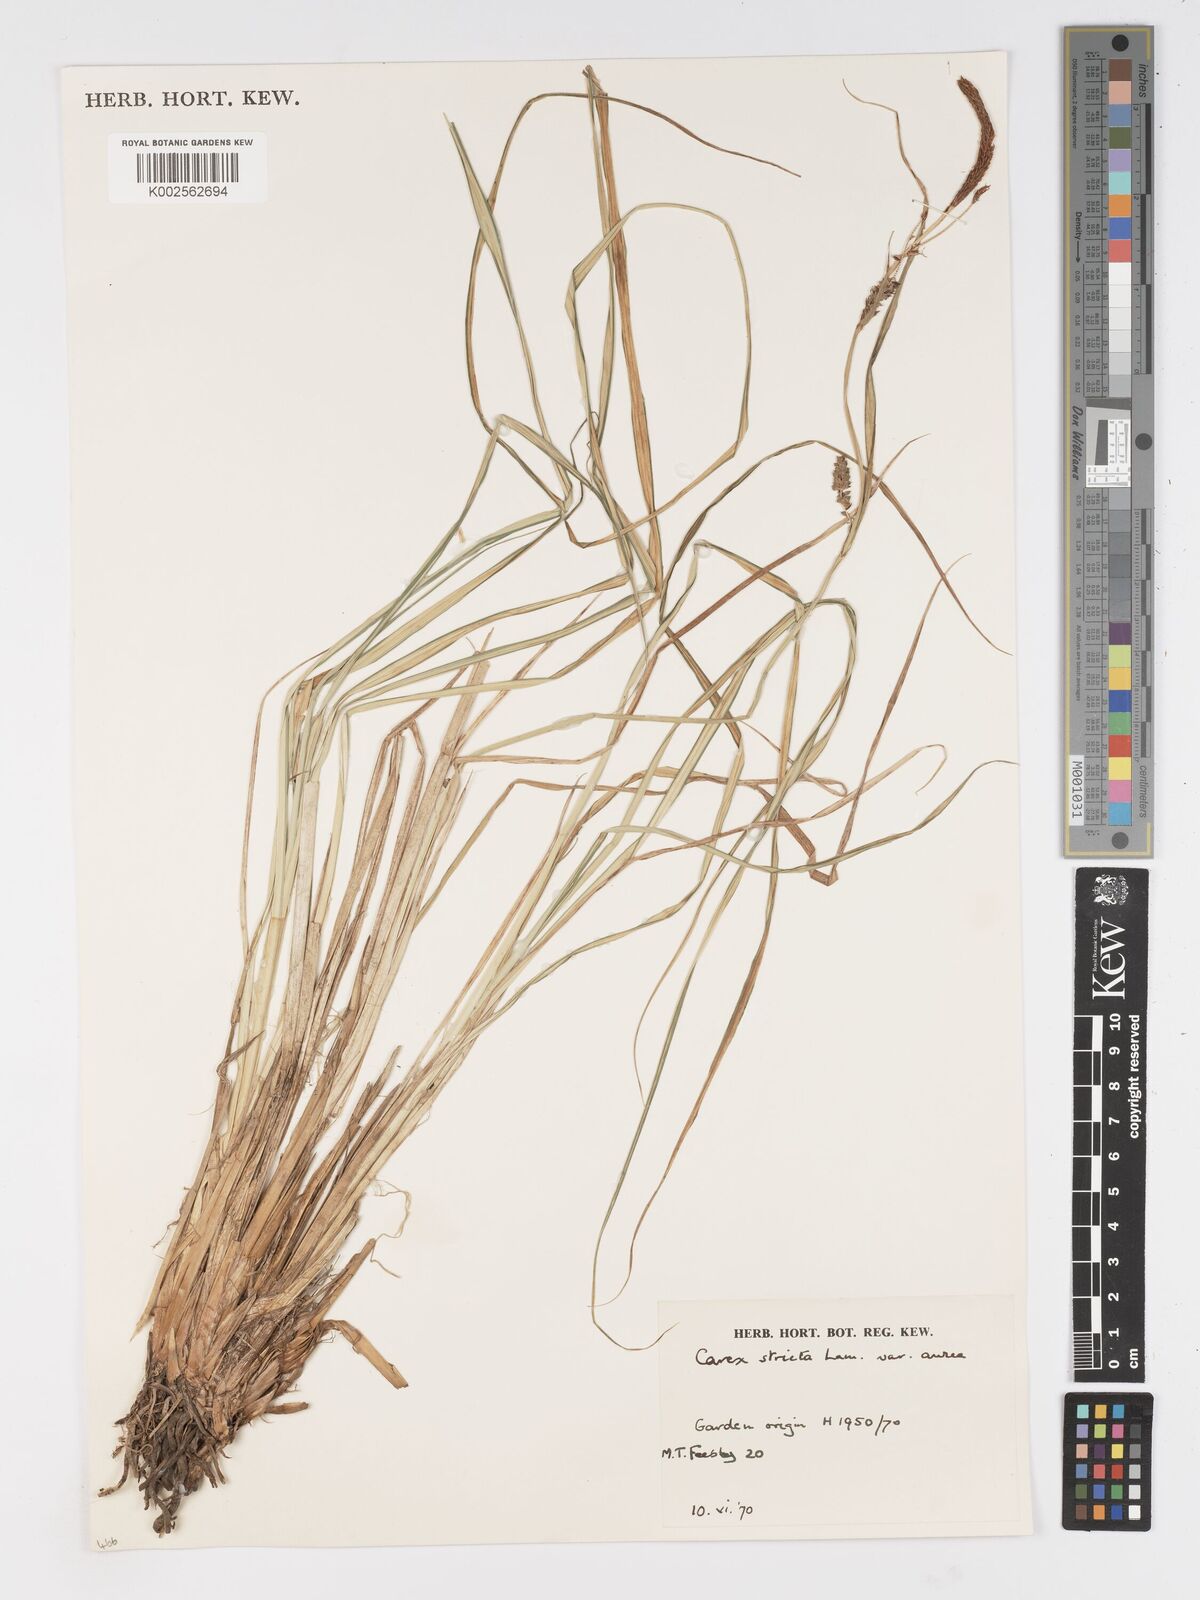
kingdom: Plantae
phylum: Tracheophyta
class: Liliopsida
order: Poales
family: Cyperaceae
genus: Carex
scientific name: Carex stricta
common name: Hummock sedge
